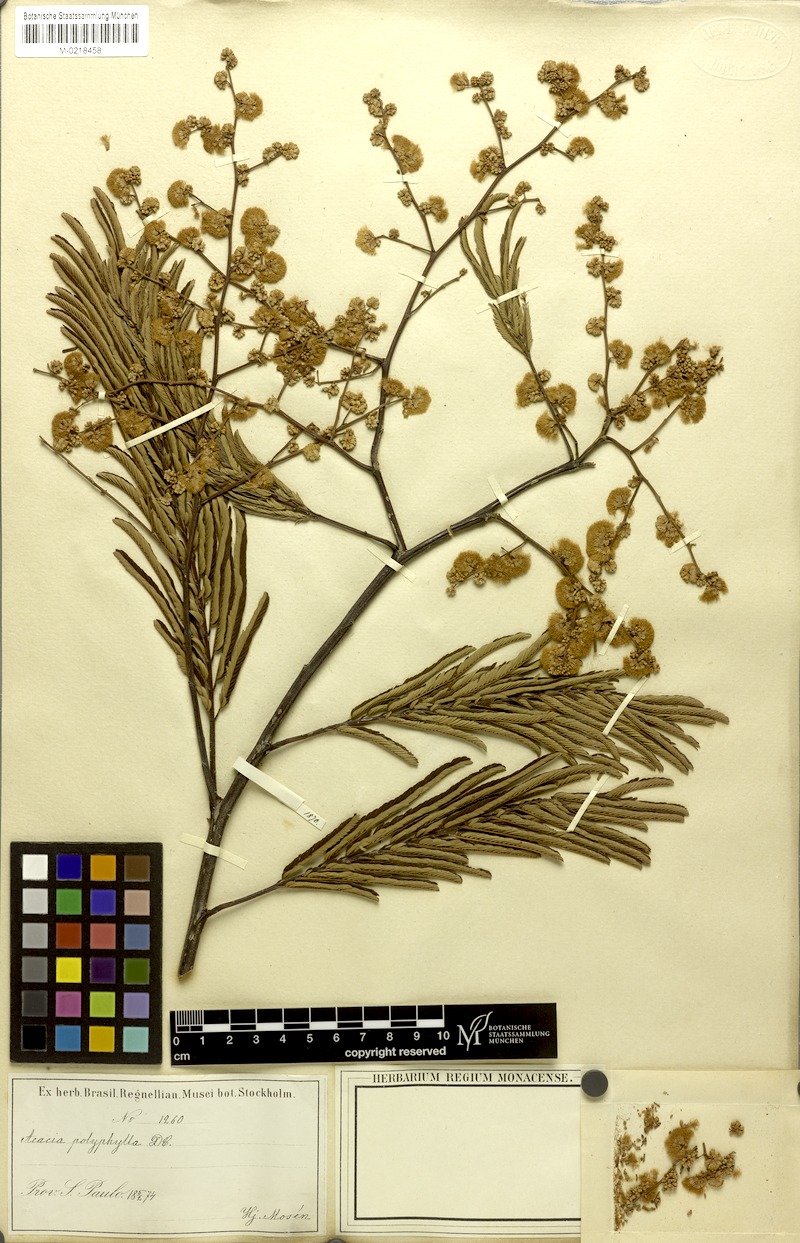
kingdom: Plantae
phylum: Tracheophyta
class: Magnoliopsida
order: Fabales
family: Fabaceae
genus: Senegalia
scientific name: Senegalia polyphylla
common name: White-tamarind
